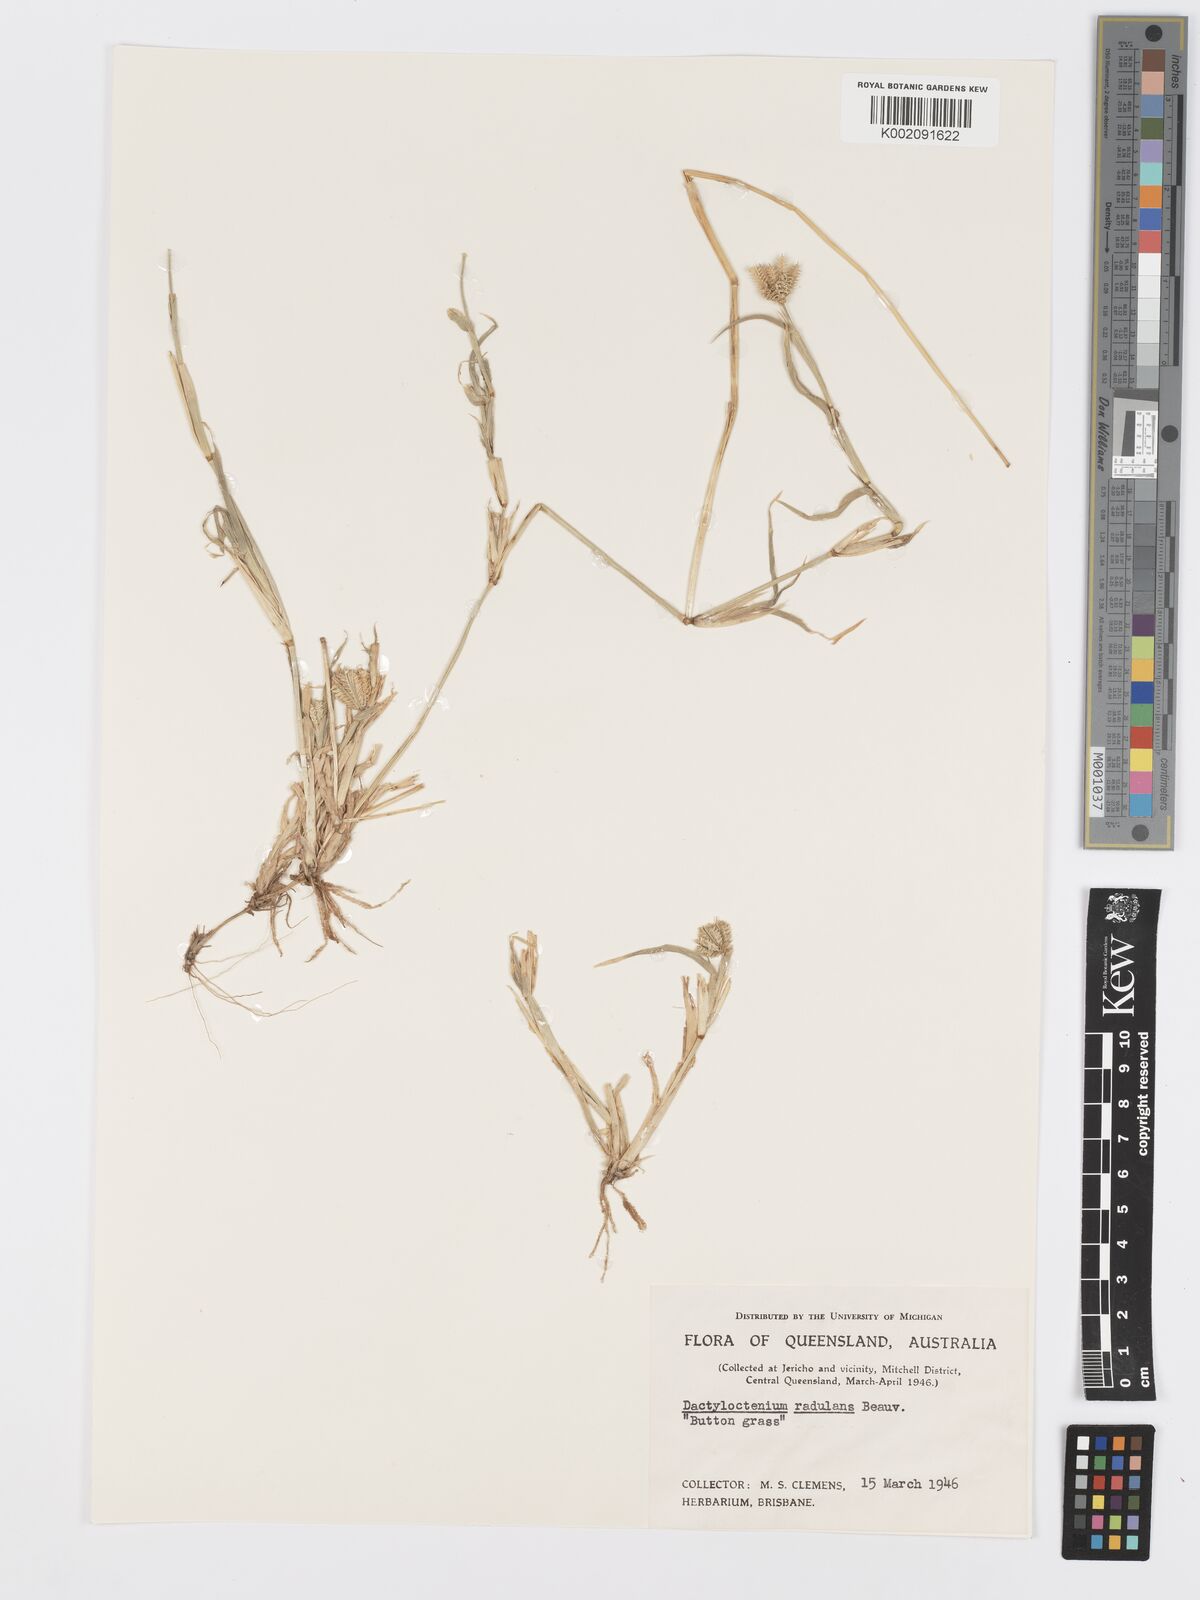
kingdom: Plantae
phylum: Tracheophyta
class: Liliopsida
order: Poales
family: Poaceae
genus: Dactyloctenium
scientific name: Dactyloctenium radulans
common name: Button-grass
